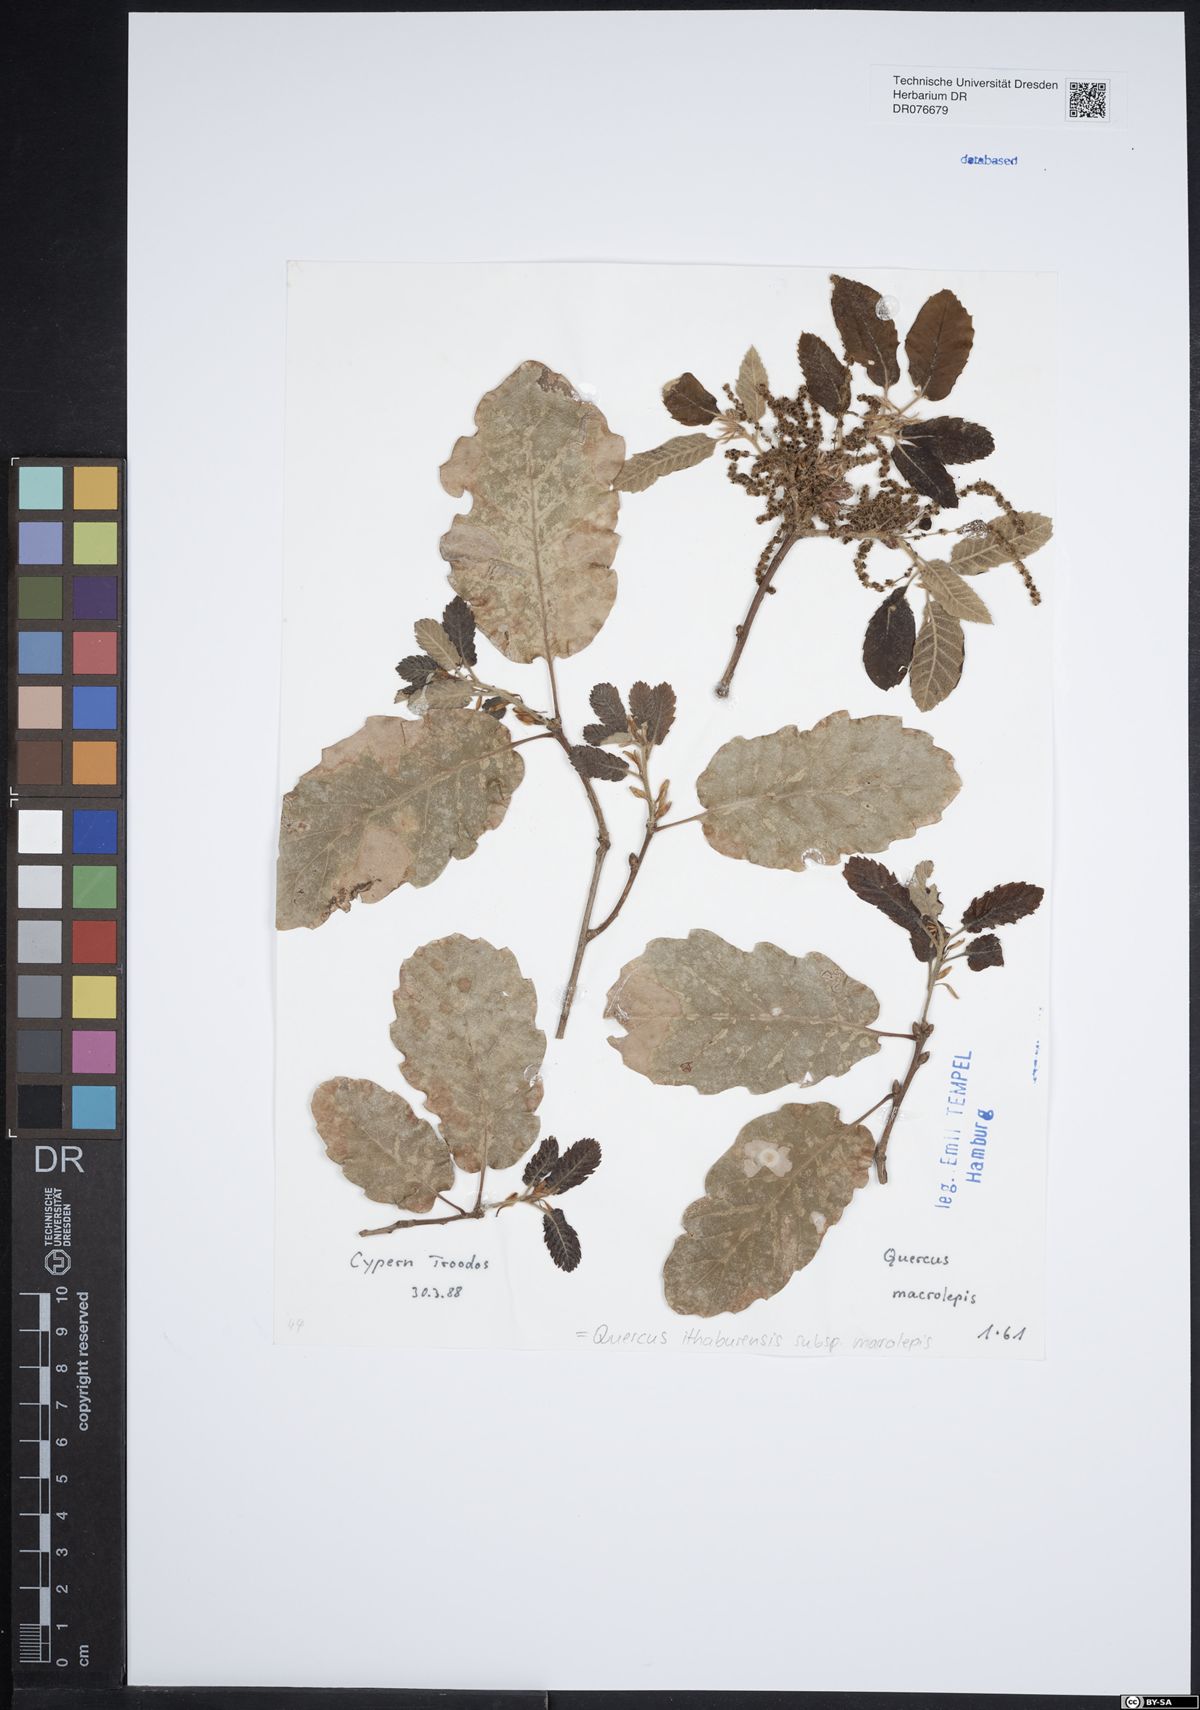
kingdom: Plantae
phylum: Tracheophyta
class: Magnoliopsida
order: Fagales
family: Fagaceae
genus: Quercus
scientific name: Quercus ithaburensis
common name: Tabor oak
